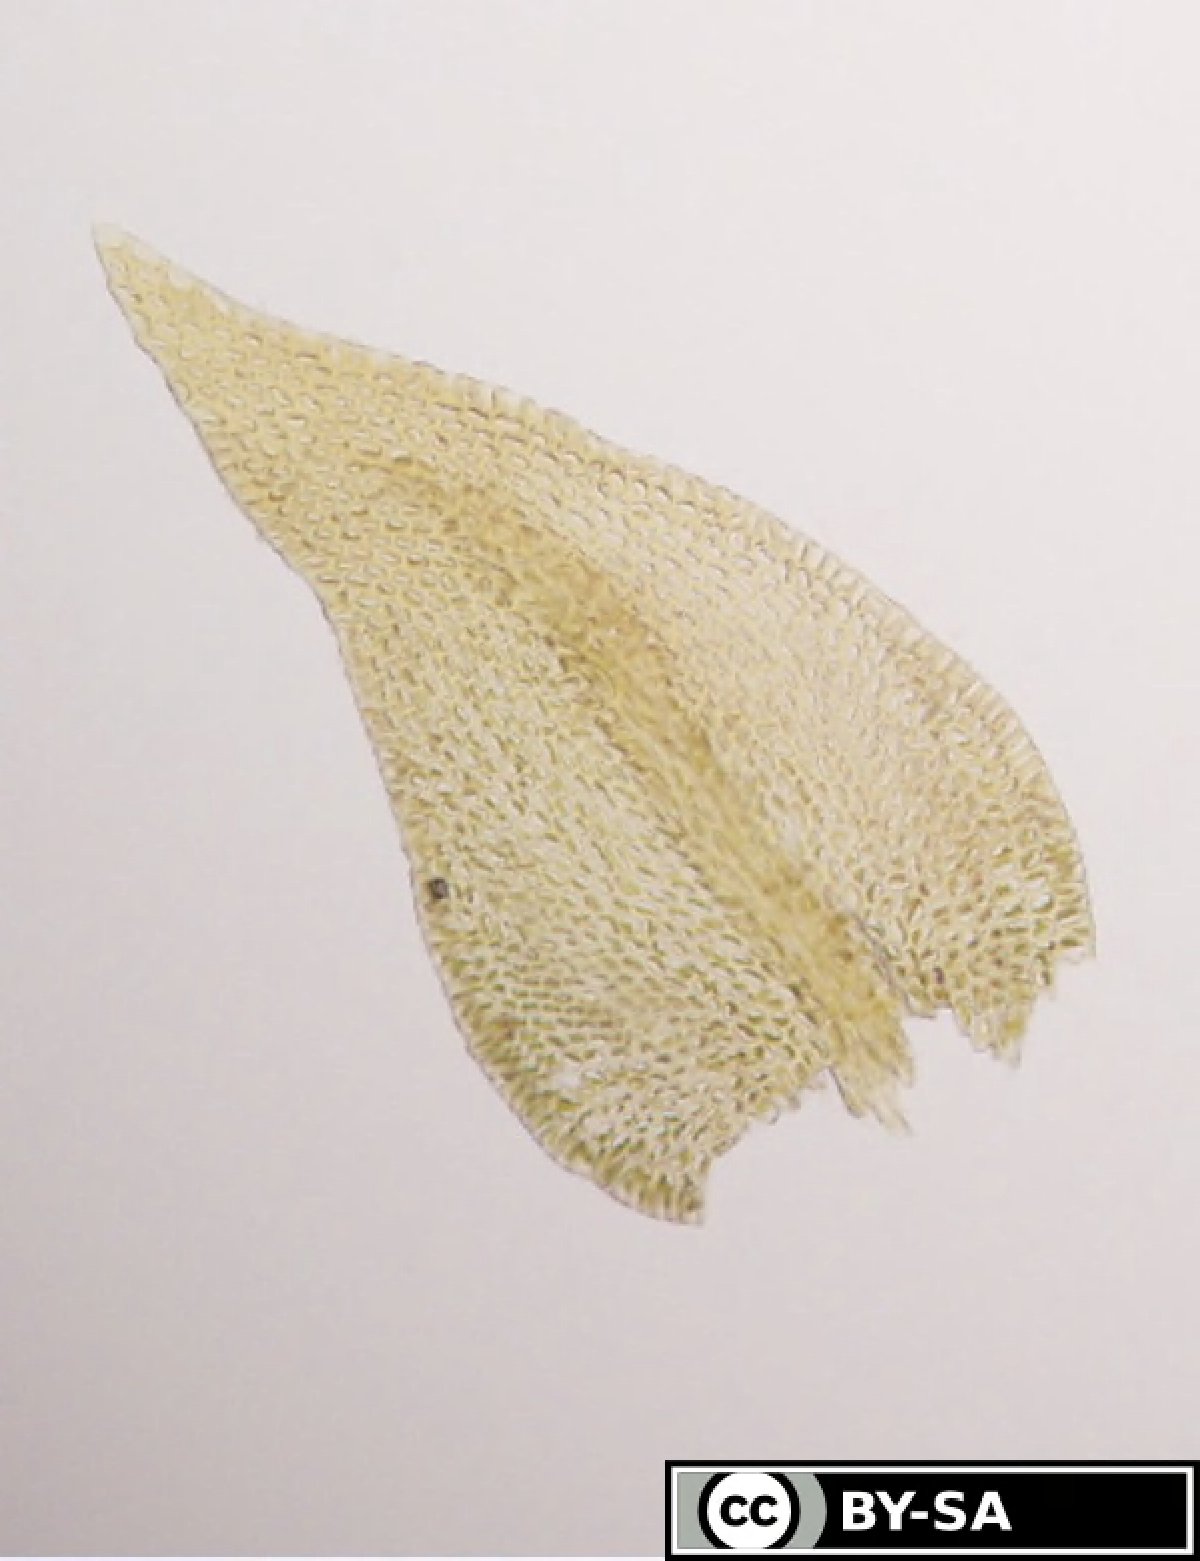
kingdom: Plantae
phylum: Bryophyta
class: Bryopsida
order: Hypnales
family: Pseudoleskeellaceae
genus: Pseudoleskeella
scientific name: Pseudoleskeella catenulata
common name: Chained leskea
